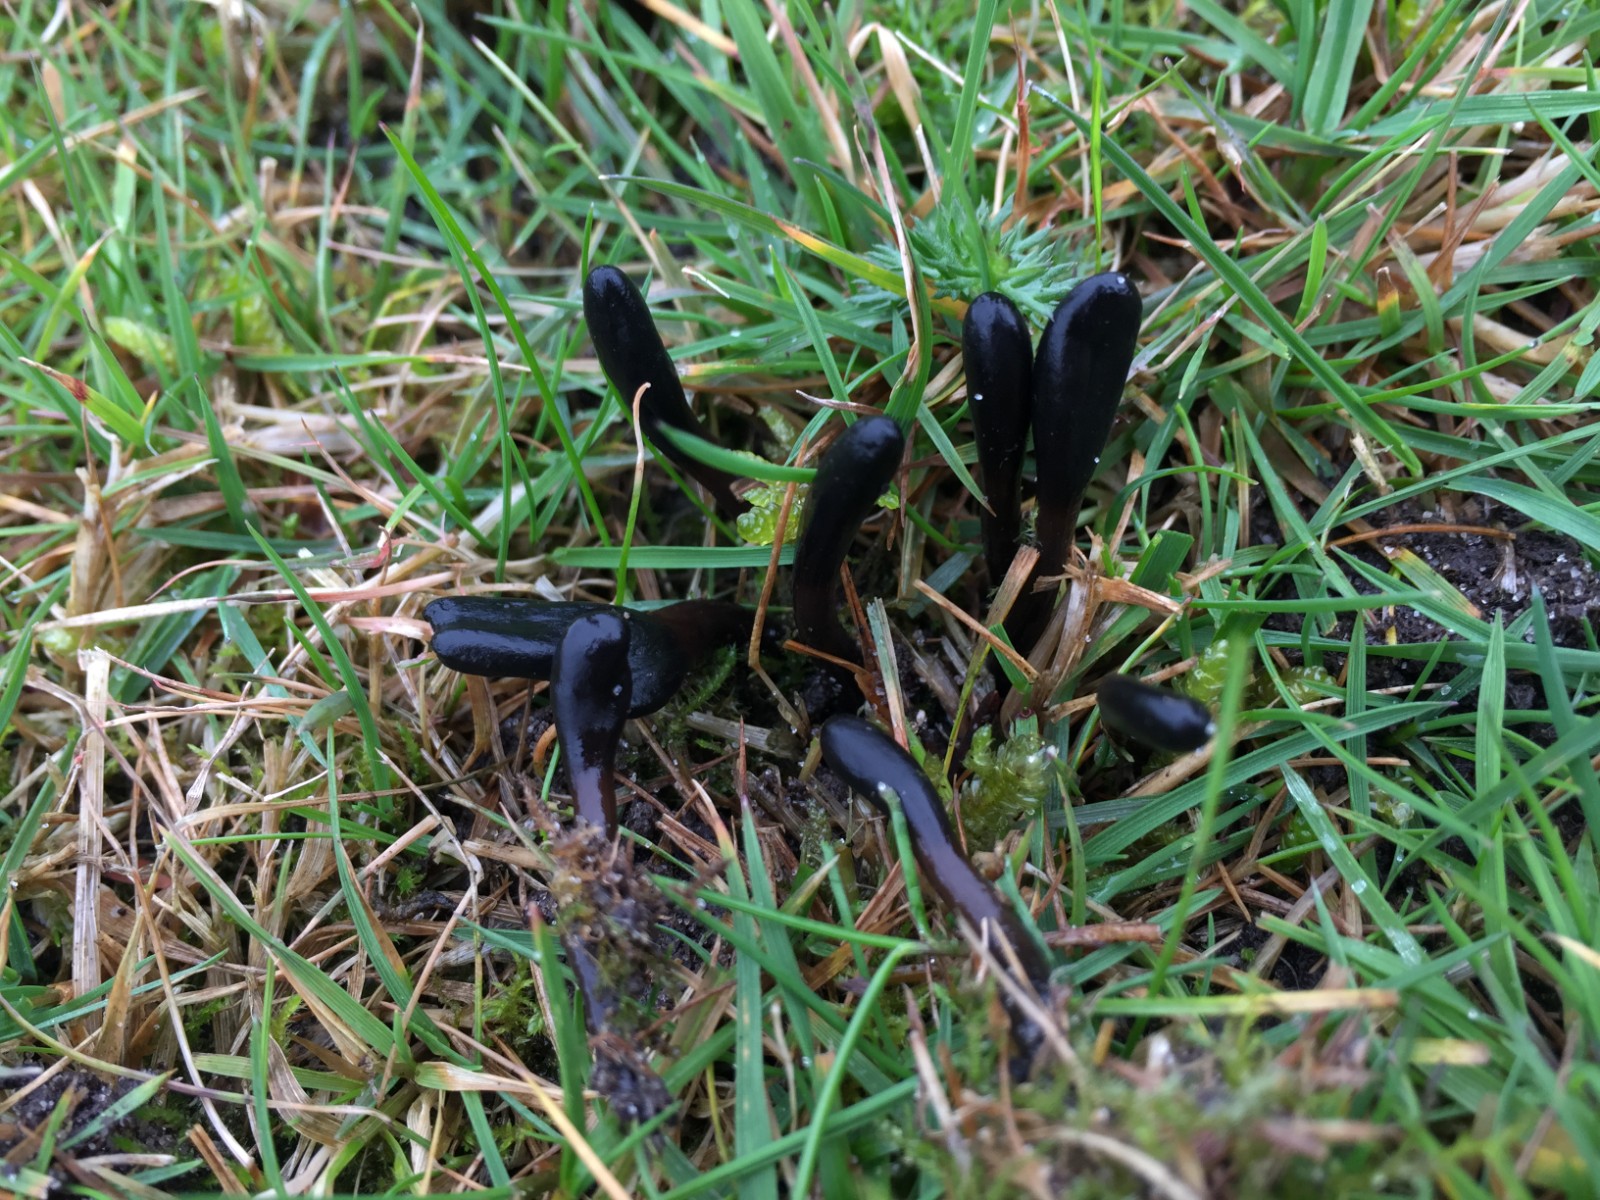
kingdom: Fungi
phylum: Ascomycota
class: Geoglossomycetes
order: Geoglossales
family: Geoglossaceae
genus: Glutinoglossum
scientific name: Glutinoglossum glutinosum
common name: slimet jordtunge
